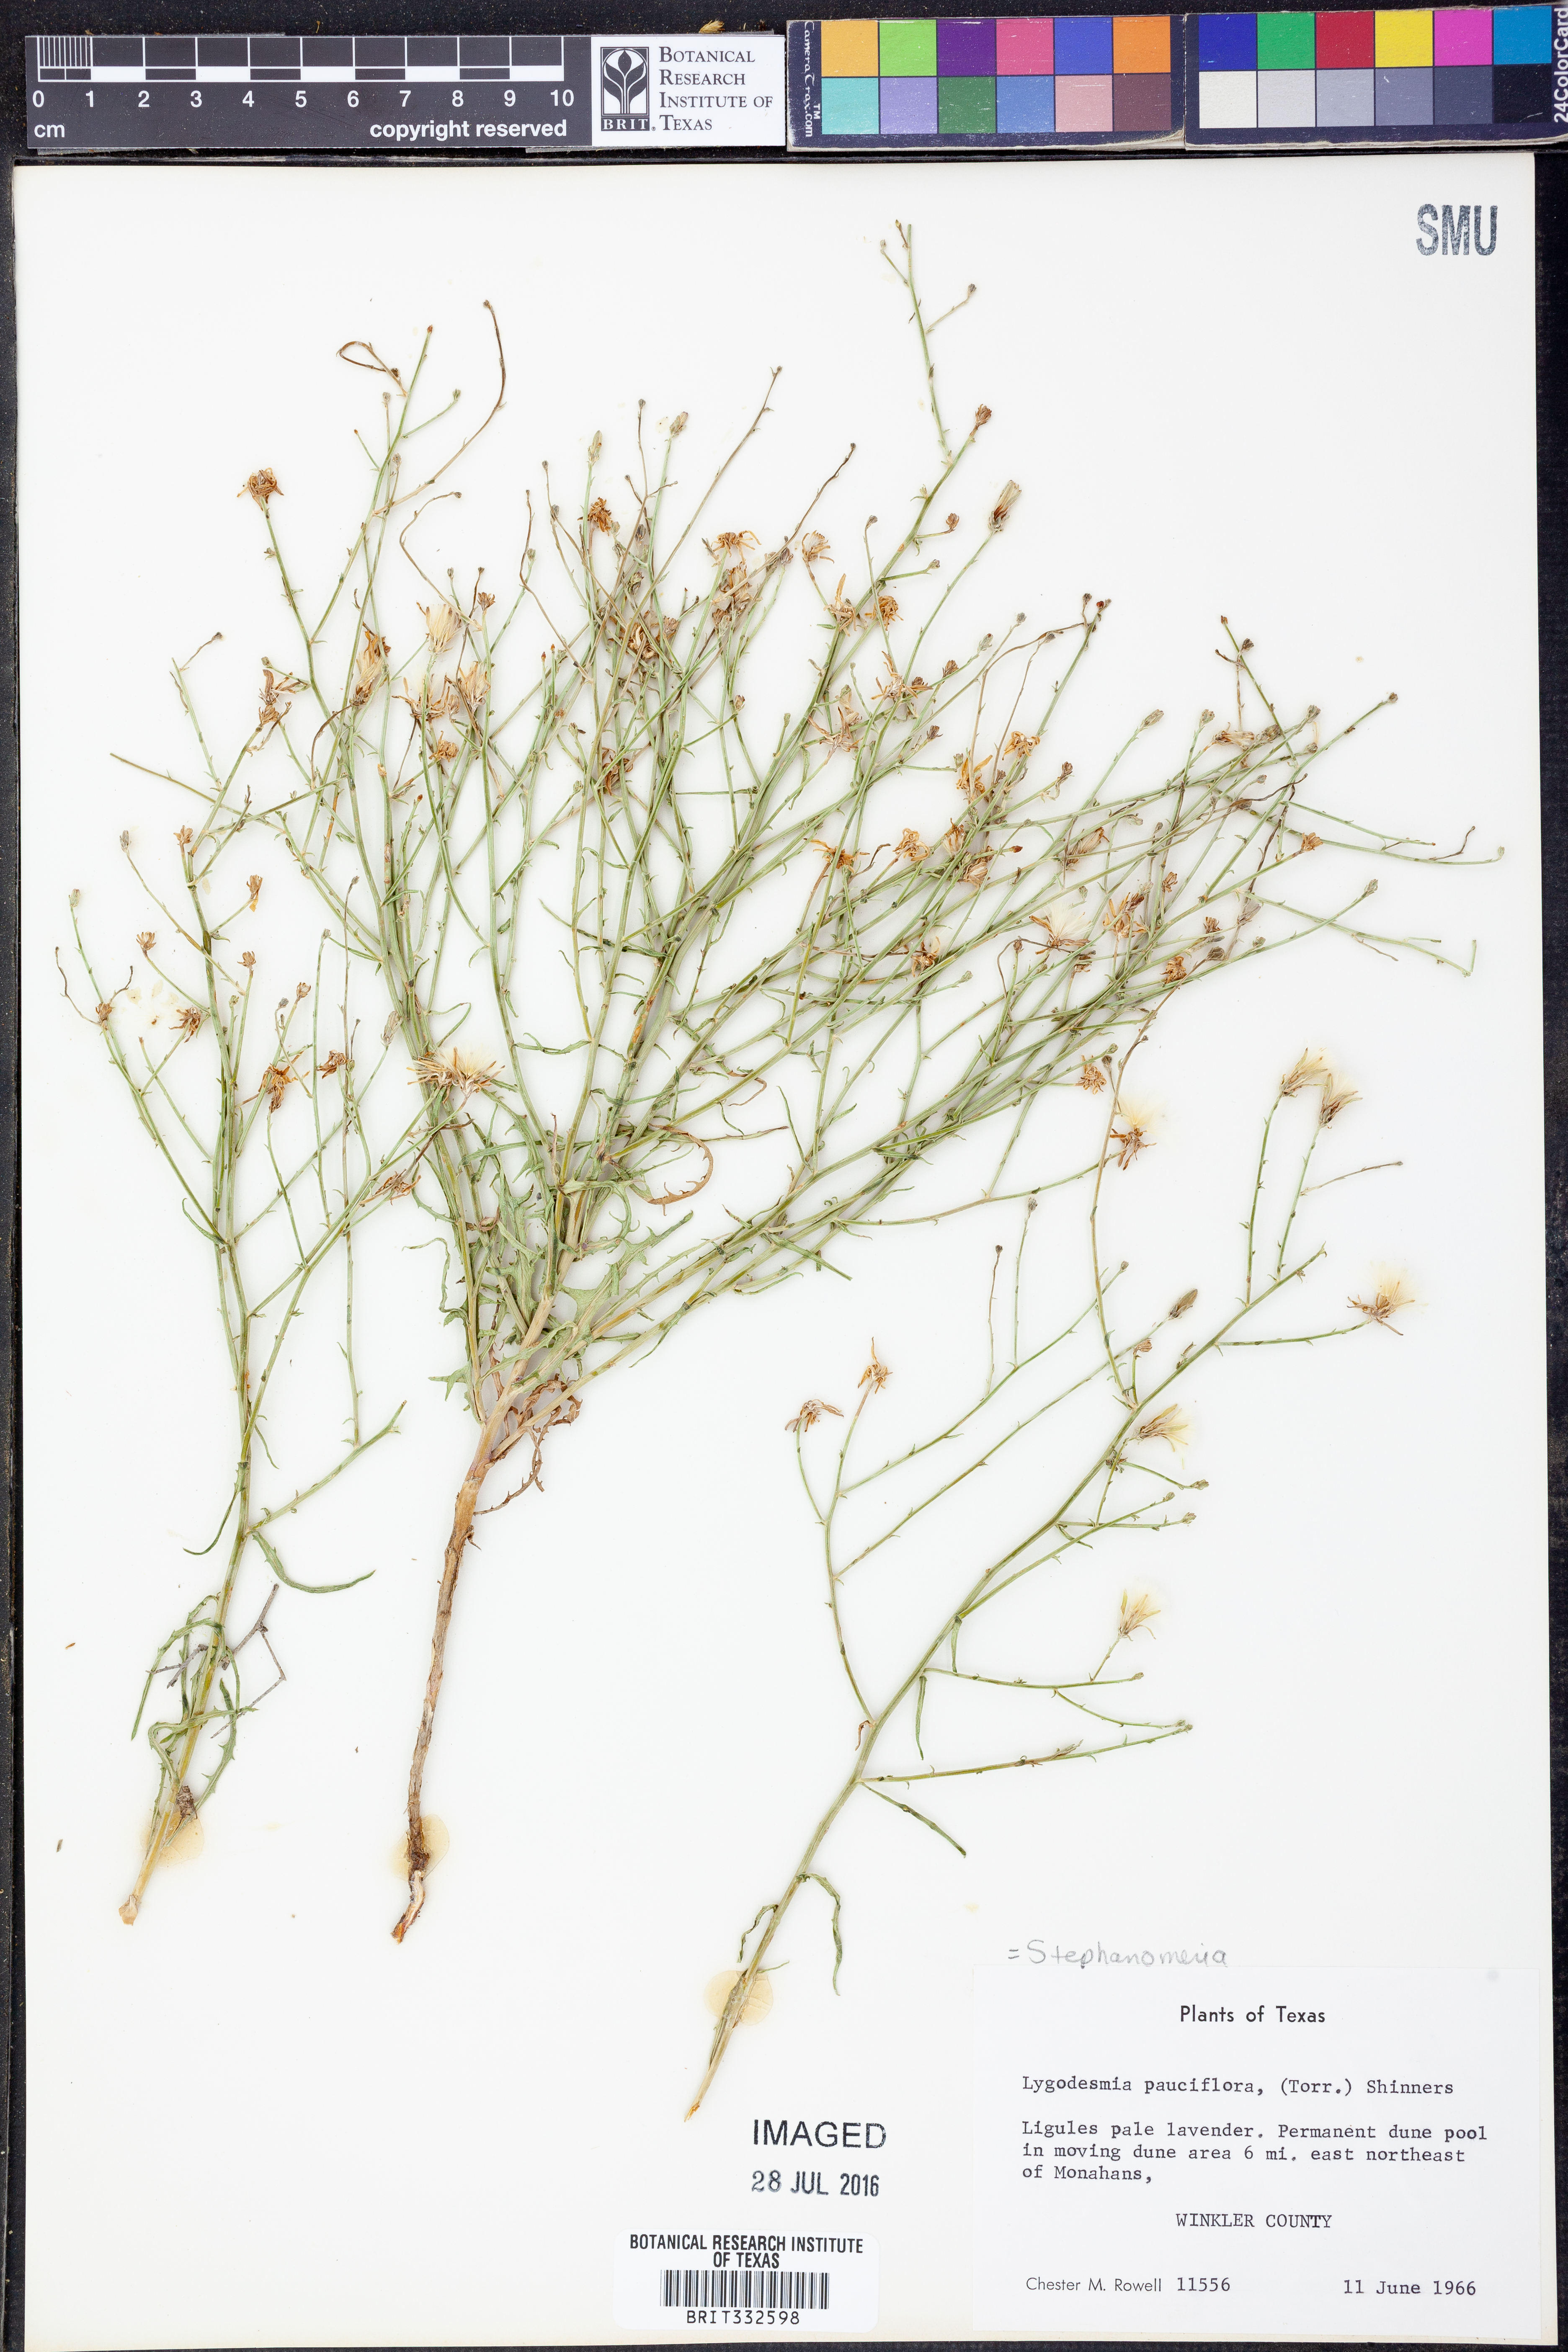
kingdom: Plantae
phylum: Tracheophyta
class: Magnoliopsida
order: Asterales
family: Asteraceae
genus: Stephanomeria
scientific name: Stephanomeria pauciflora
